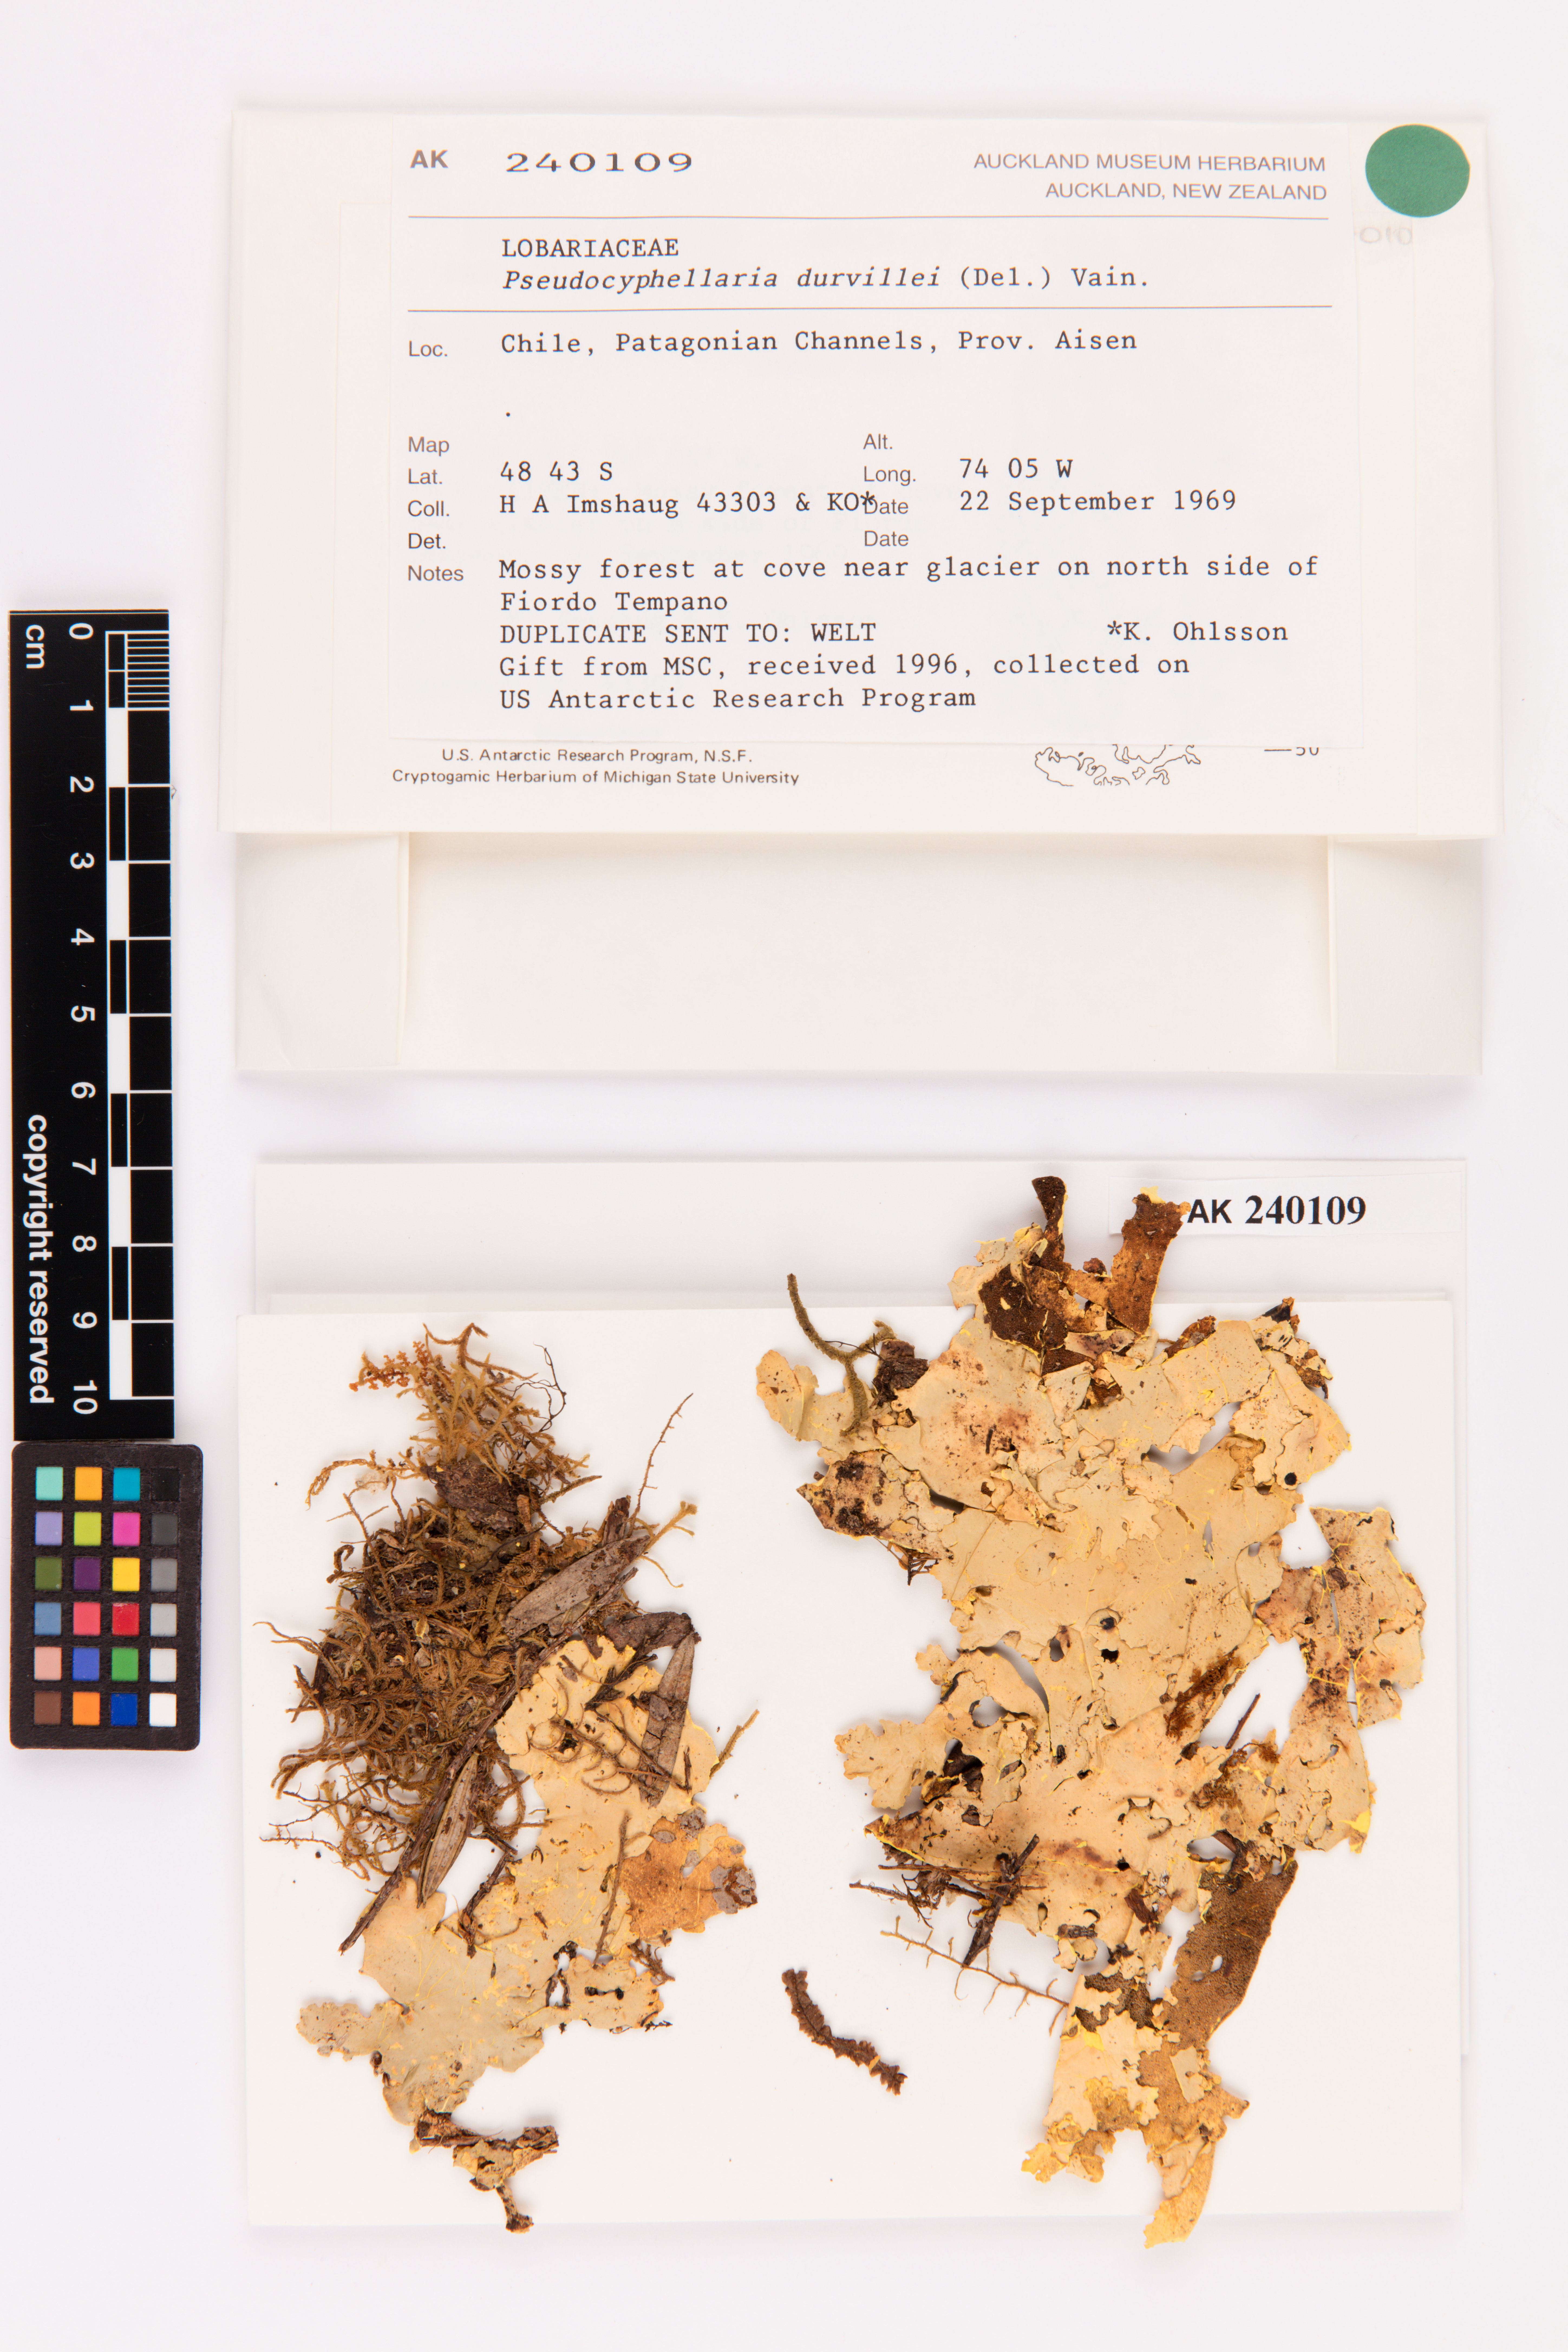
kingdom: Fungi
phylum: Ascomycota
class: Lecanoromycetes
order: Peltigerales
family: Lobariaceae
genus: Yarrumia
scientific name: Yarrumia coronata
